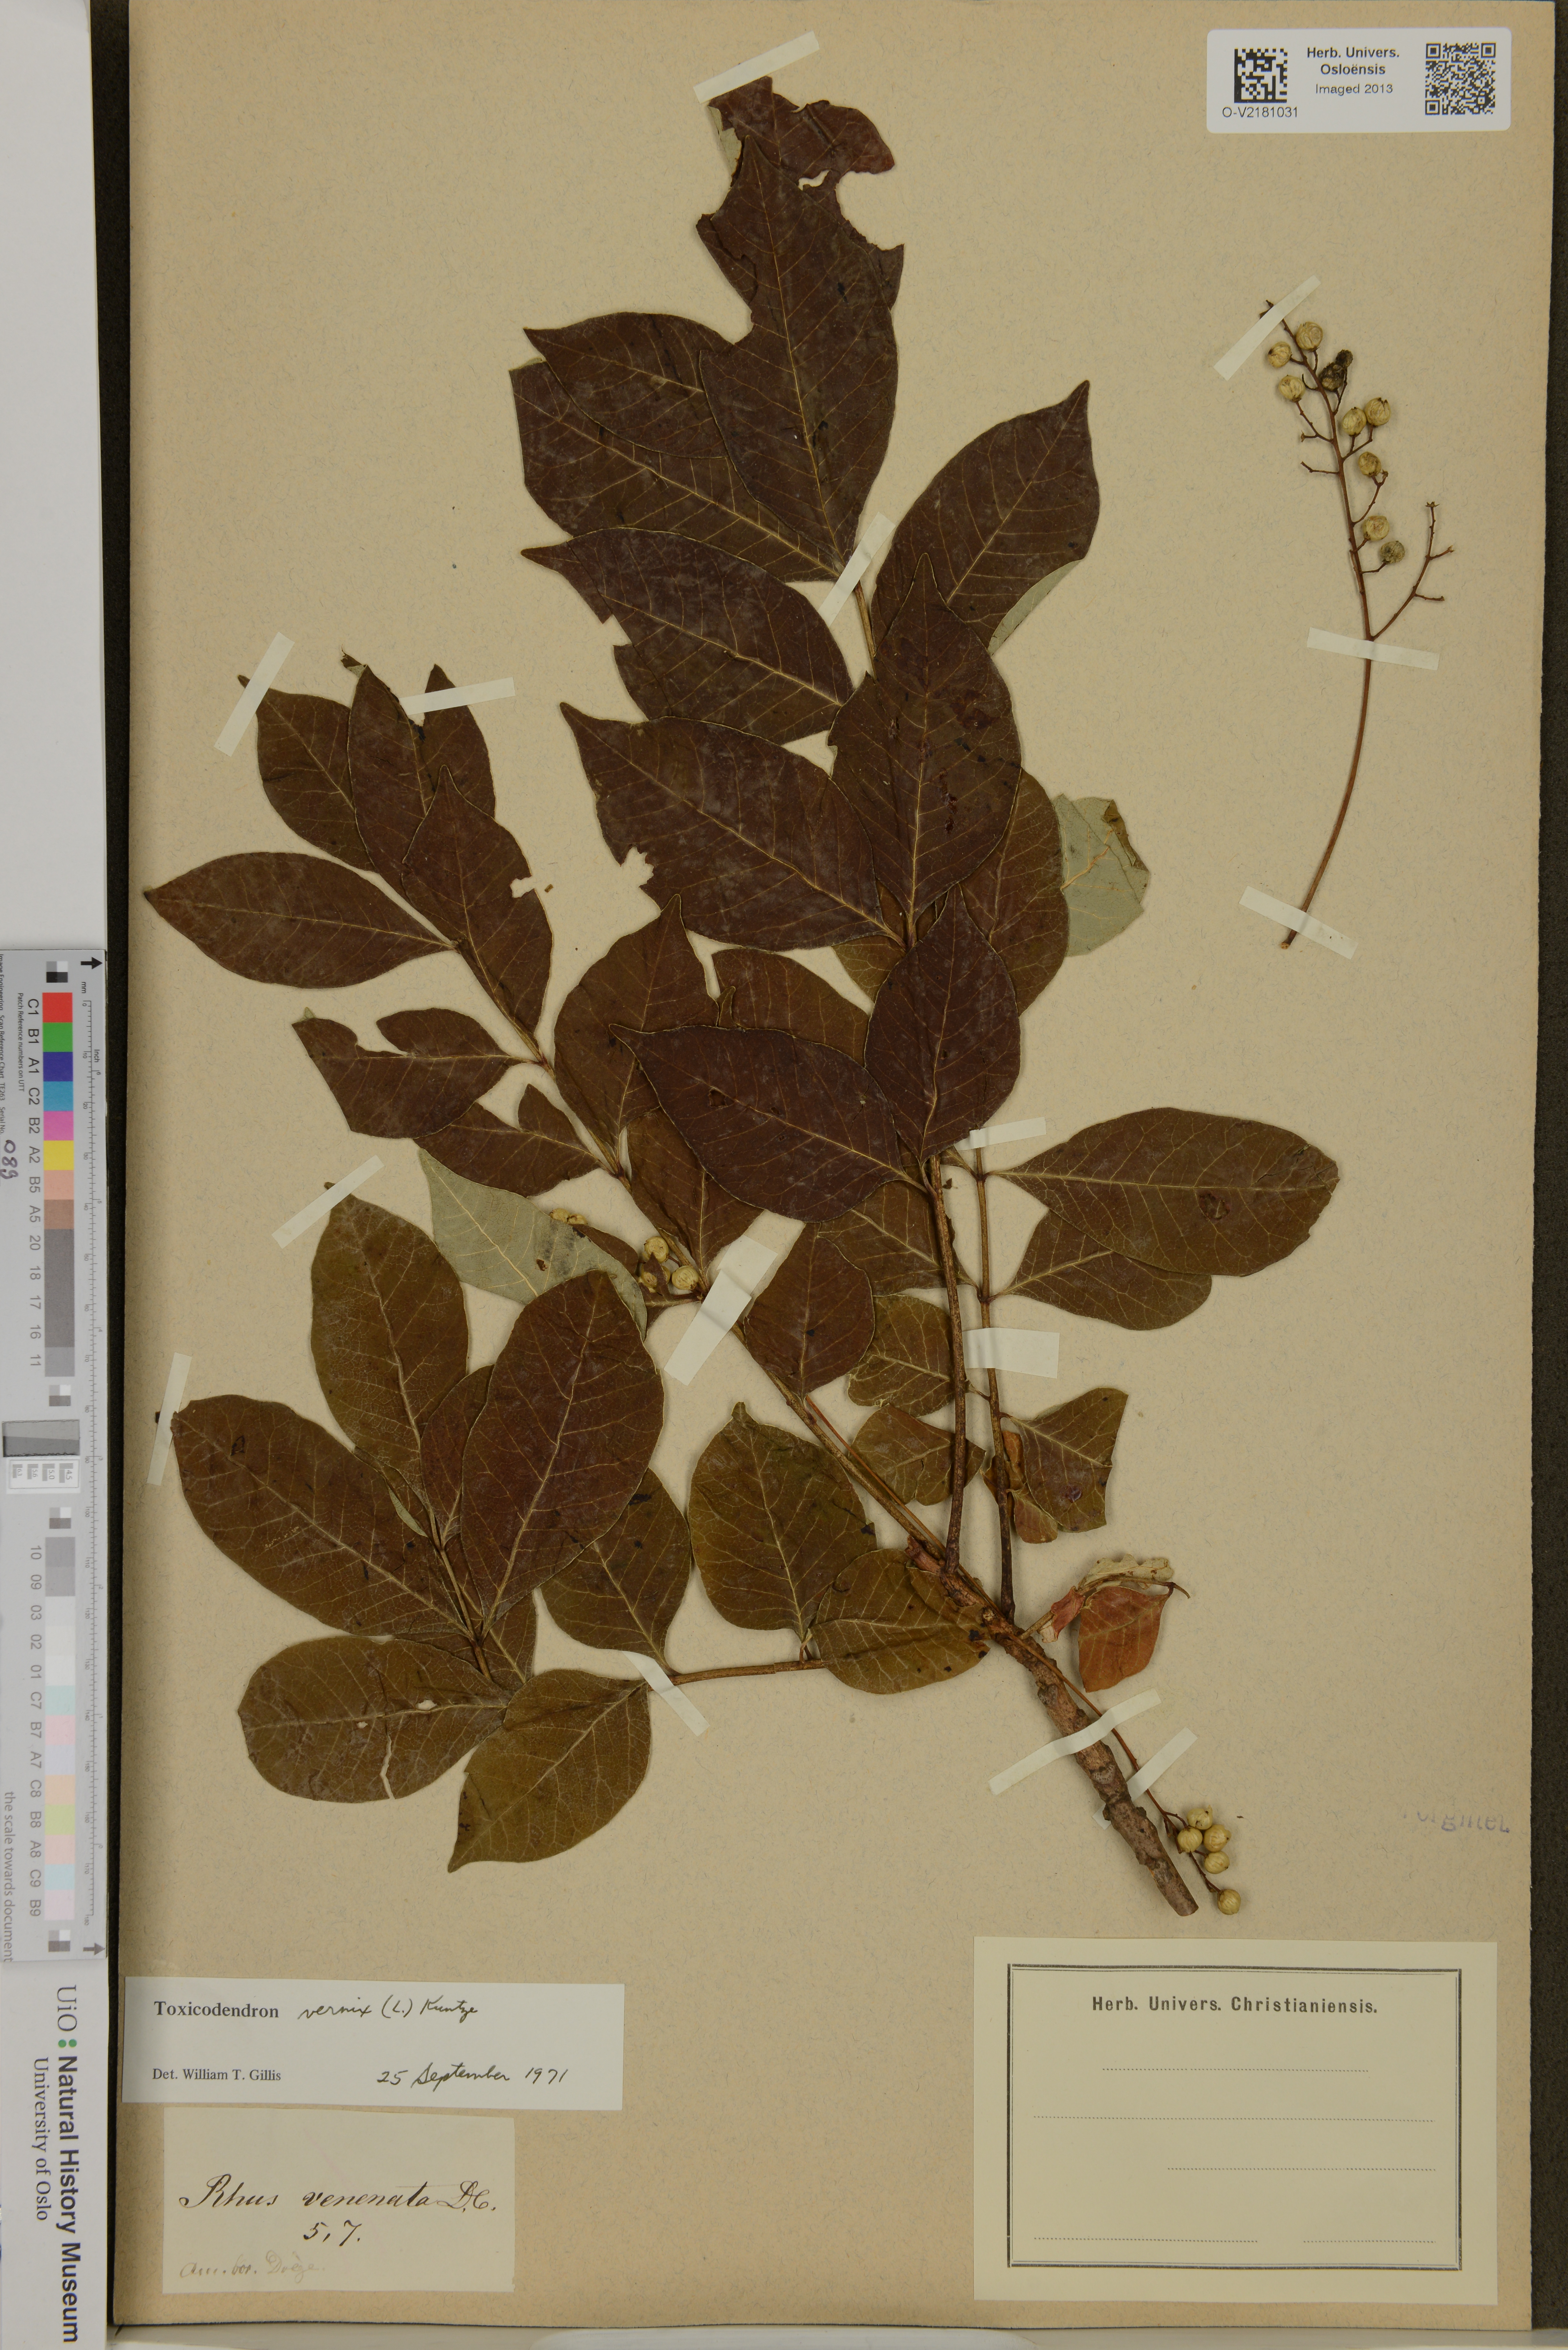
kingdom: Plantae
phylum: Tracheophyta
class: Magnoliopsida
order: Sapindales
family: Anacardiaceae
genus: Toxicodendron
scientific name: Toxicodendron vernix
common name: Poison sumac
